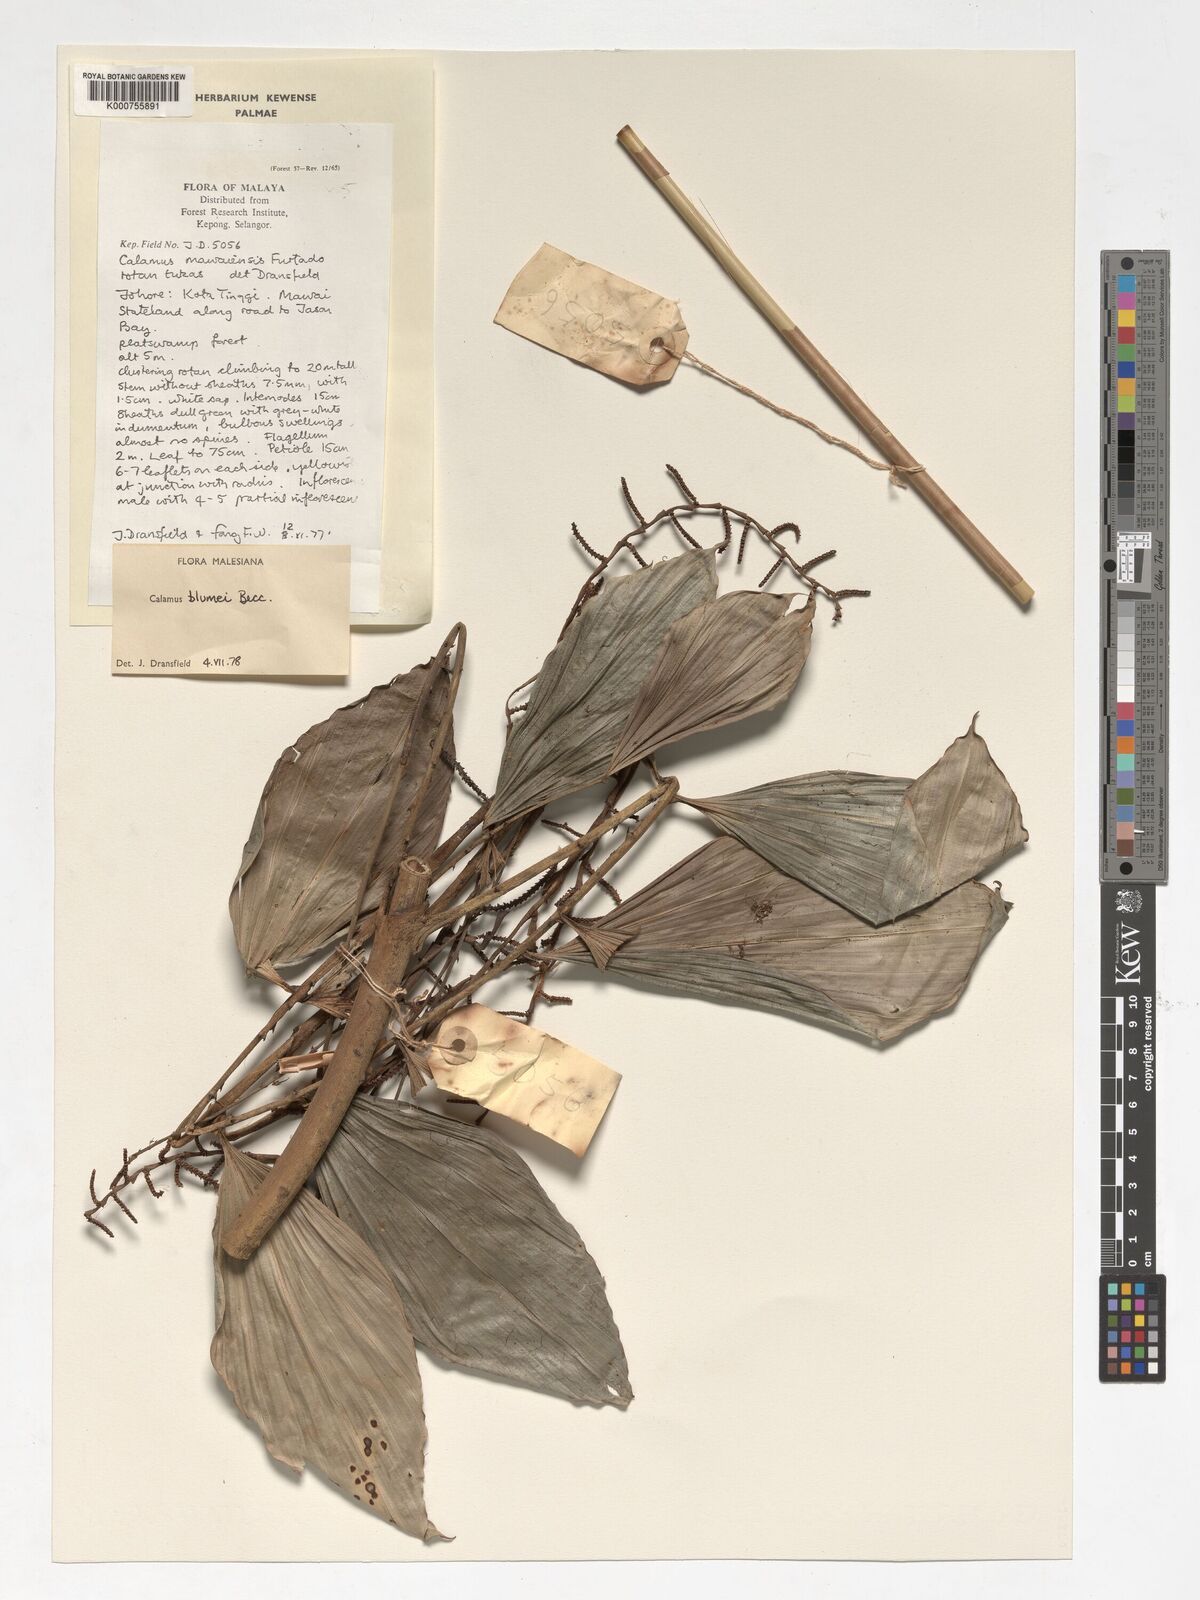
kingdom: Plantae
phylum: Tracheophyta
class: Liliopsida
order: Arecales
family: Arecaceae
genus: Calamus
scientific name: Calamus rhomboideus
